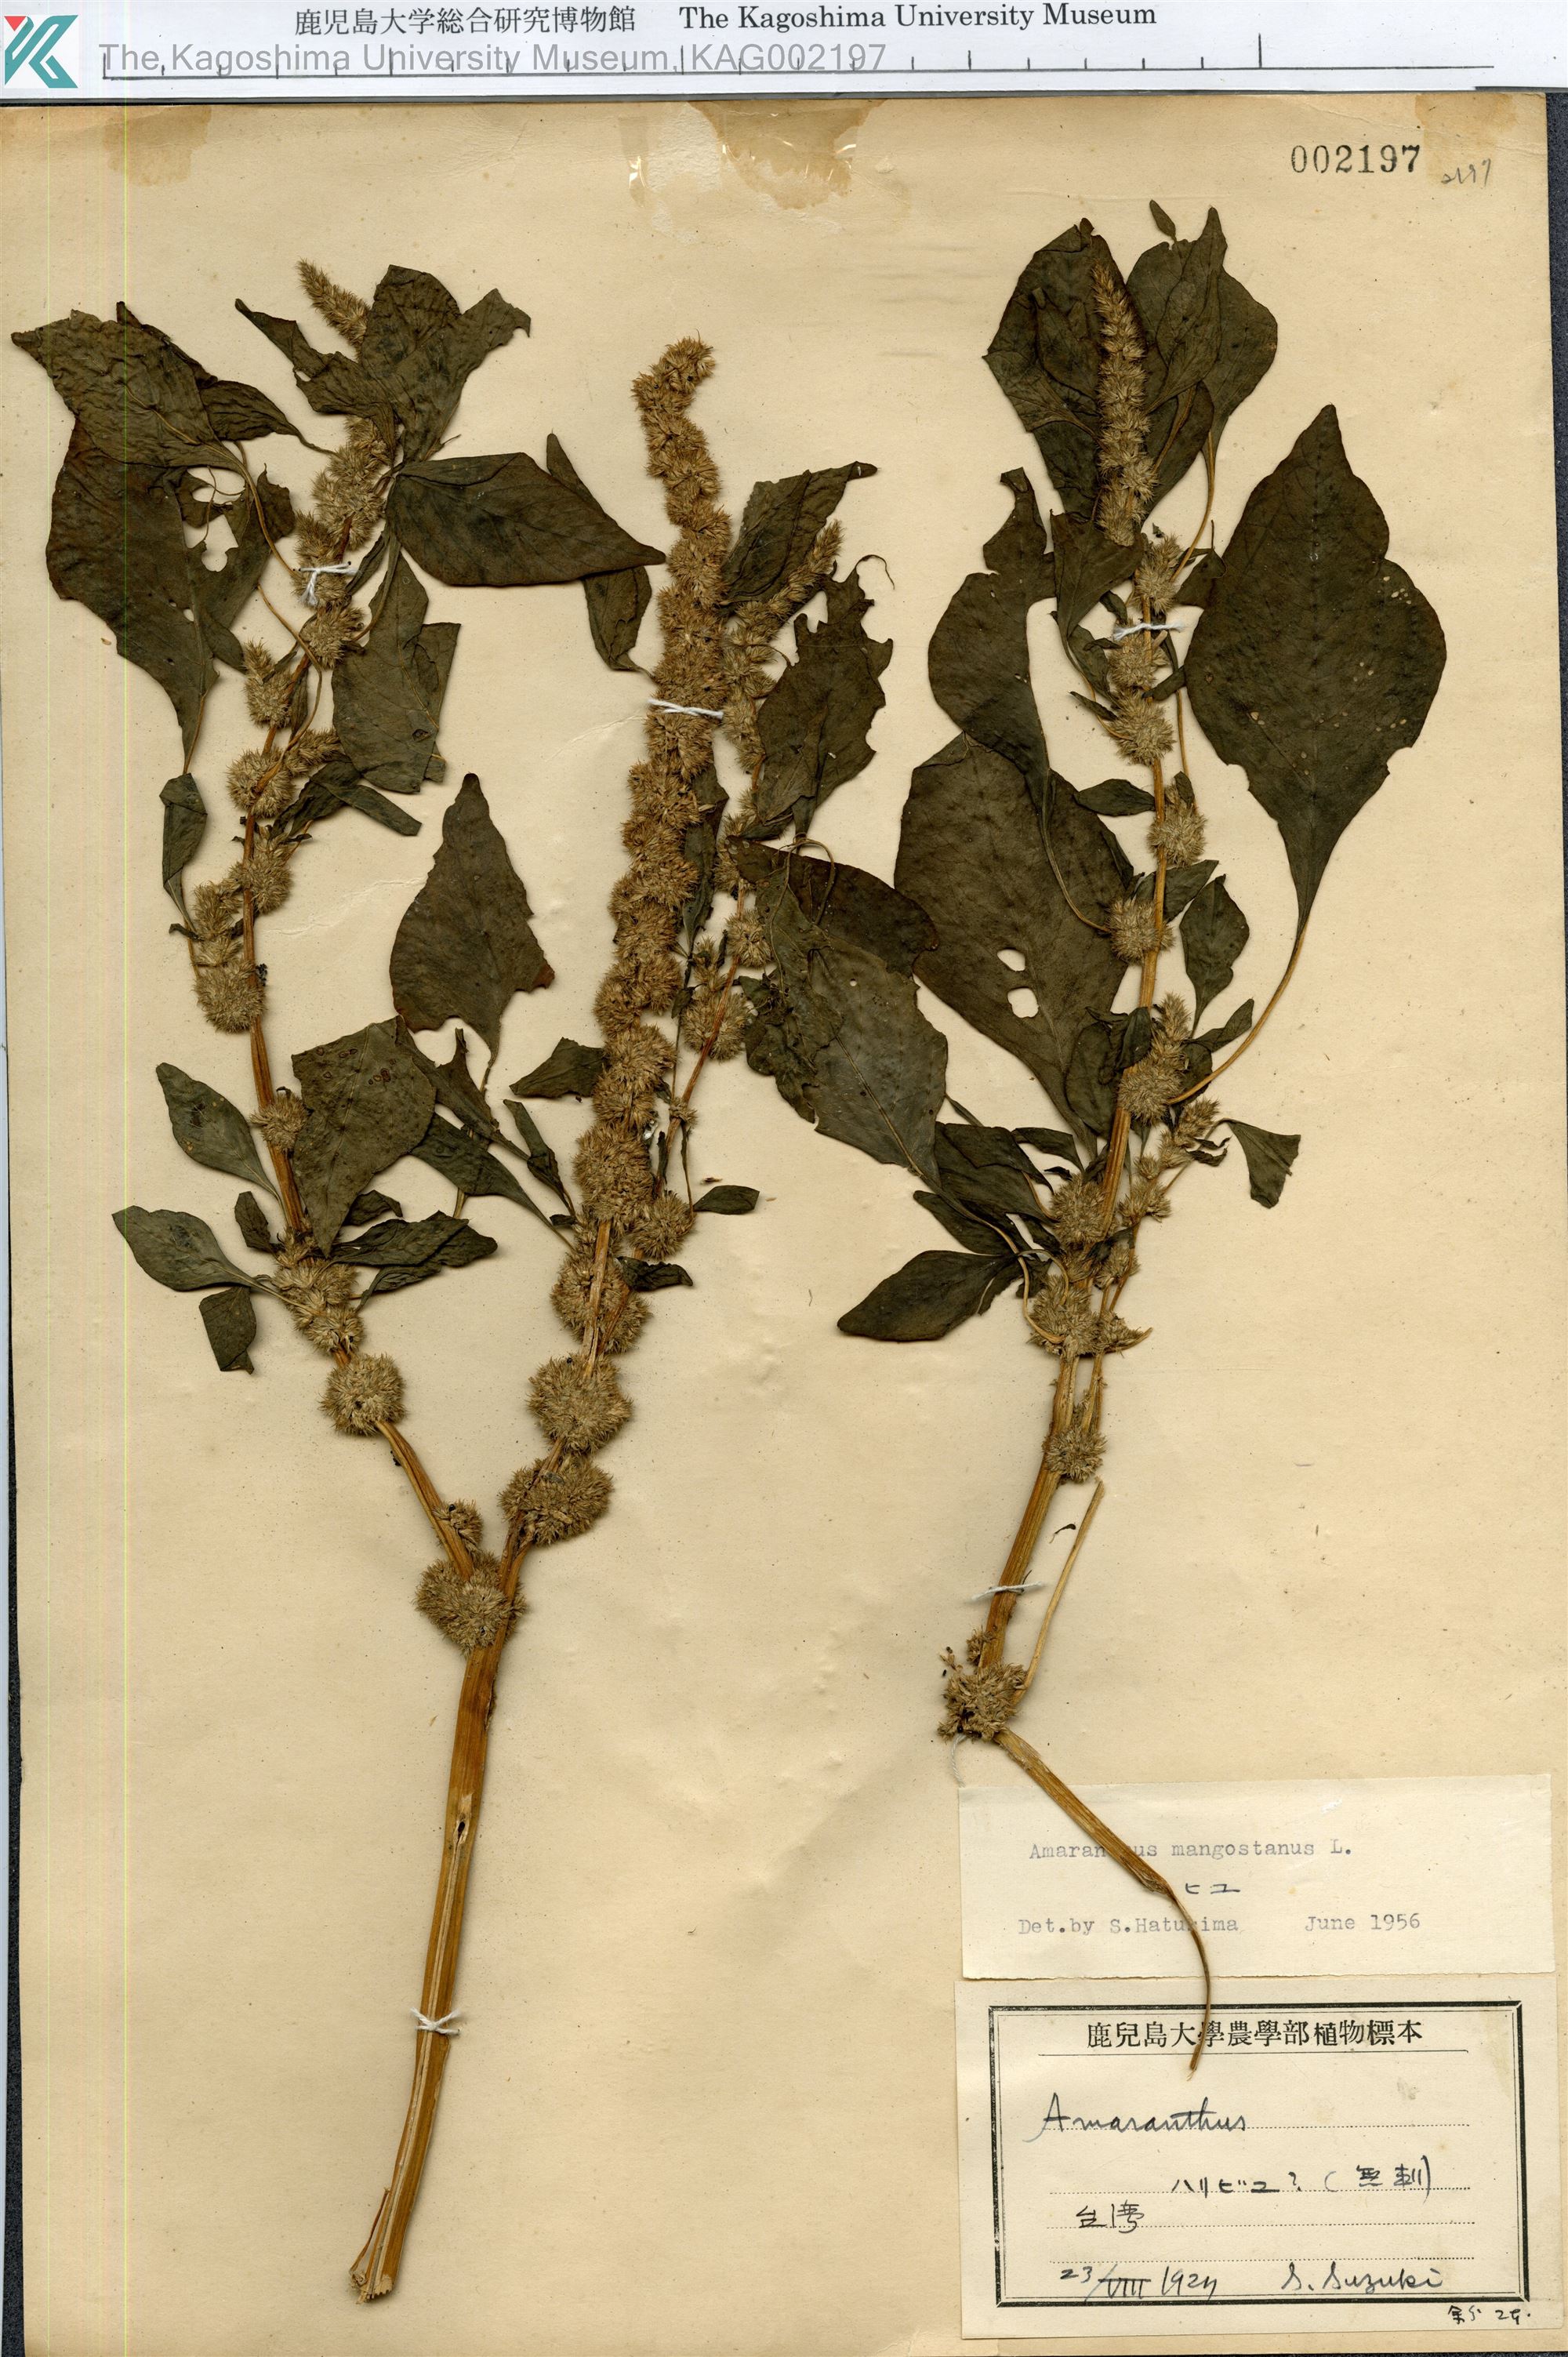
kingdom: Plantae
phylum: Tracheophyta
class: Magnoliopsida
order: Caryophyllales
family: Amaranthaceae
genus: Amaranthus
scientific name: Amaranthus tricolor
